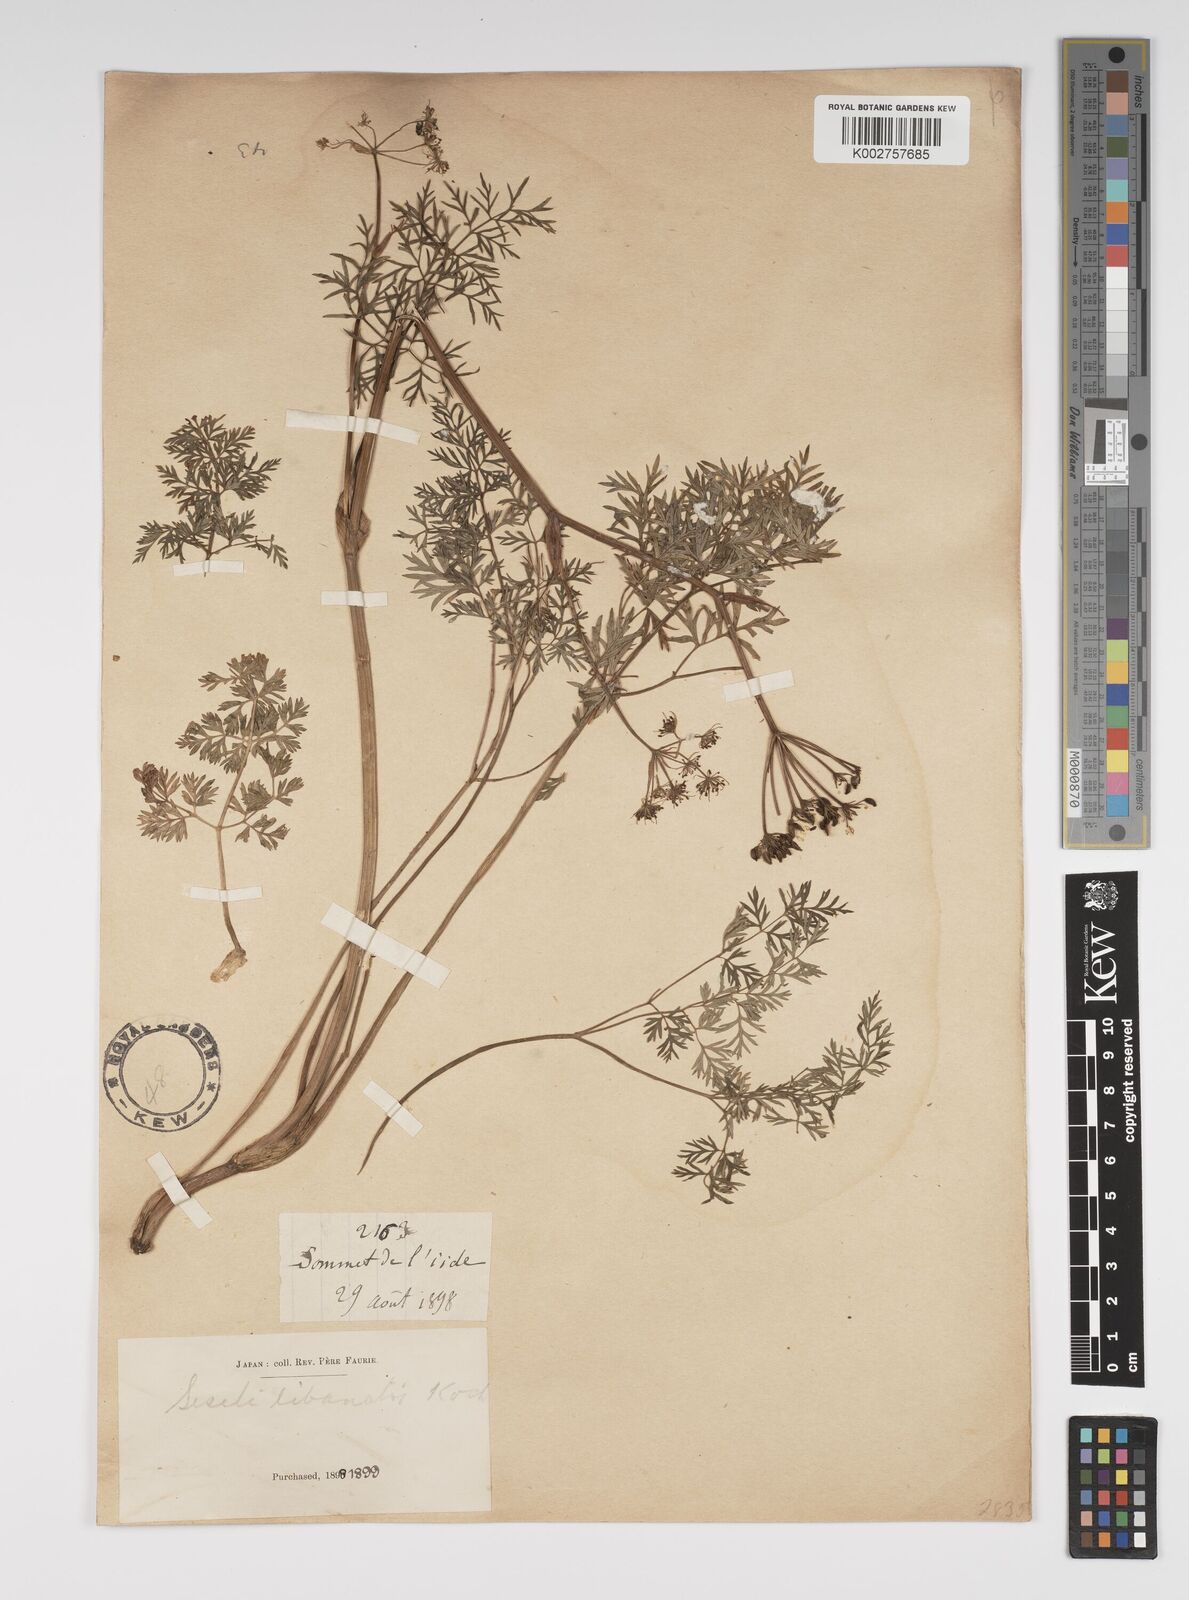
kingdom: Plantae
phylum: Tracheophyta
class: Magnoliopsida
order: Apiales
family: Apiaceae
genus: Seseli
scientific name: Seseli libanotis
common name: Mooncarrot
